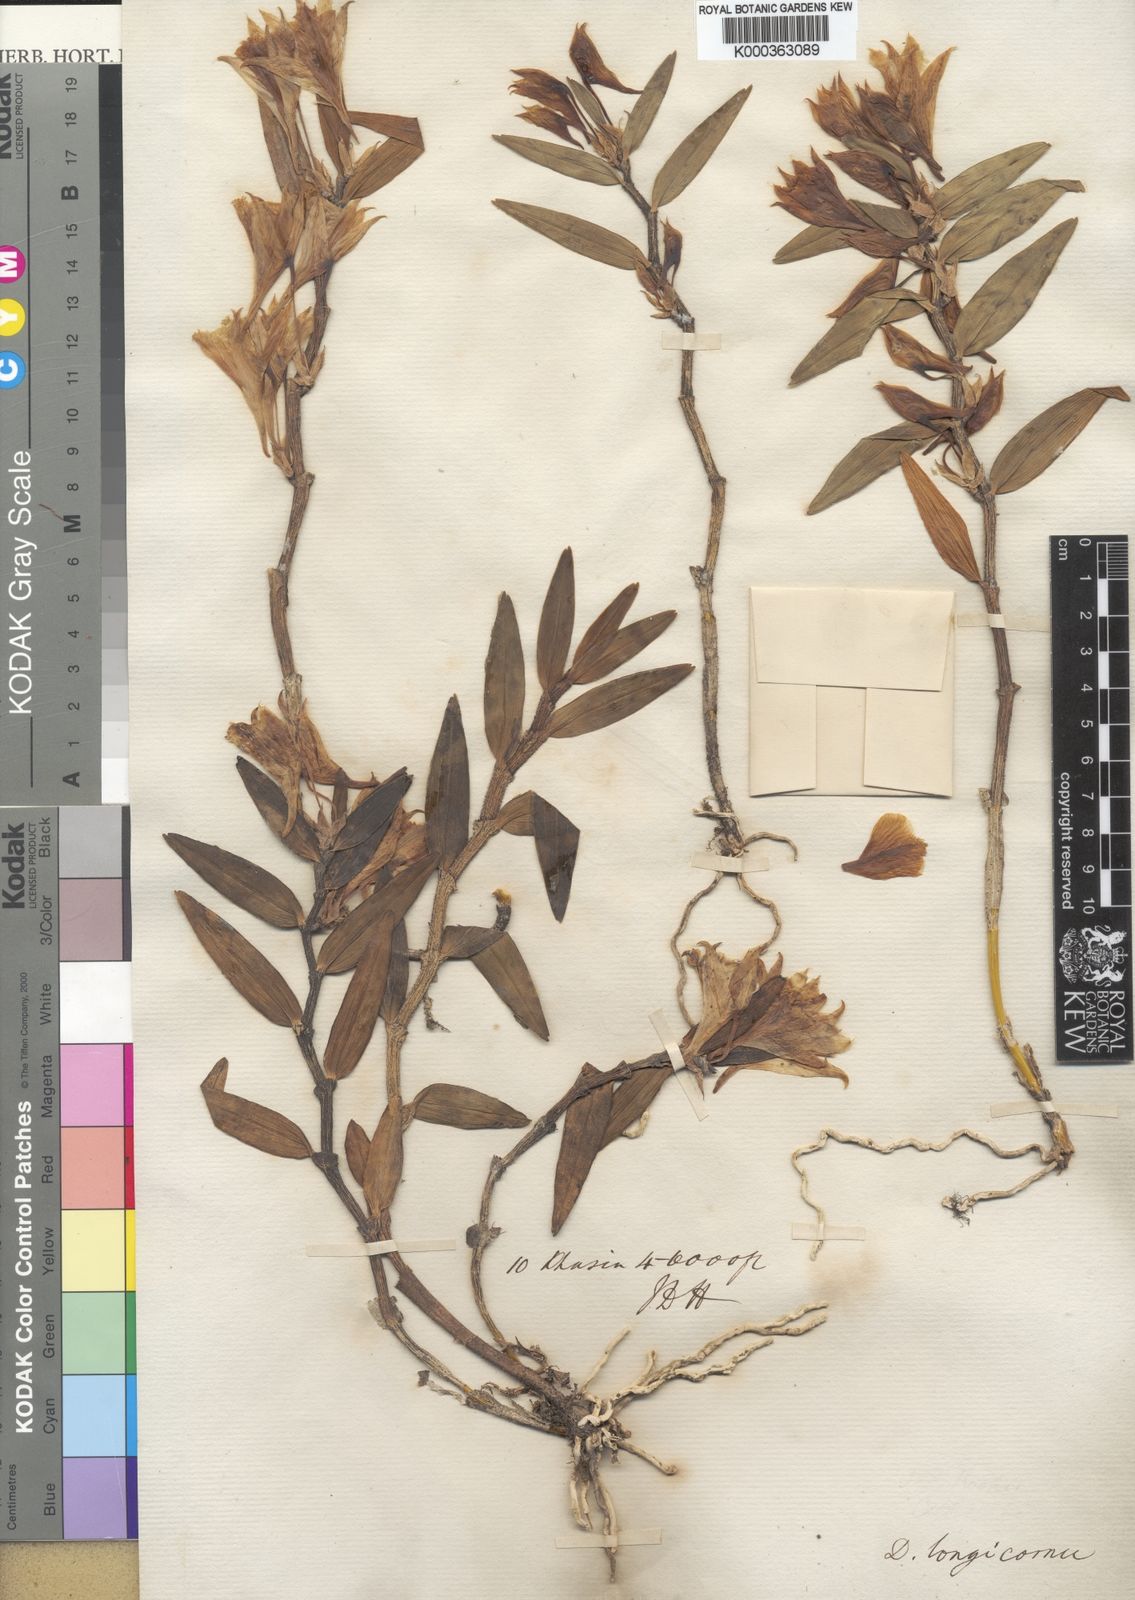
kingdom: Plantae
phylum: Tracheophyta
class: Liliopsida
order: Asparagales
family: Orchidaceae
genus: Dendrobium
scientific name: Dendrobium longicornu
